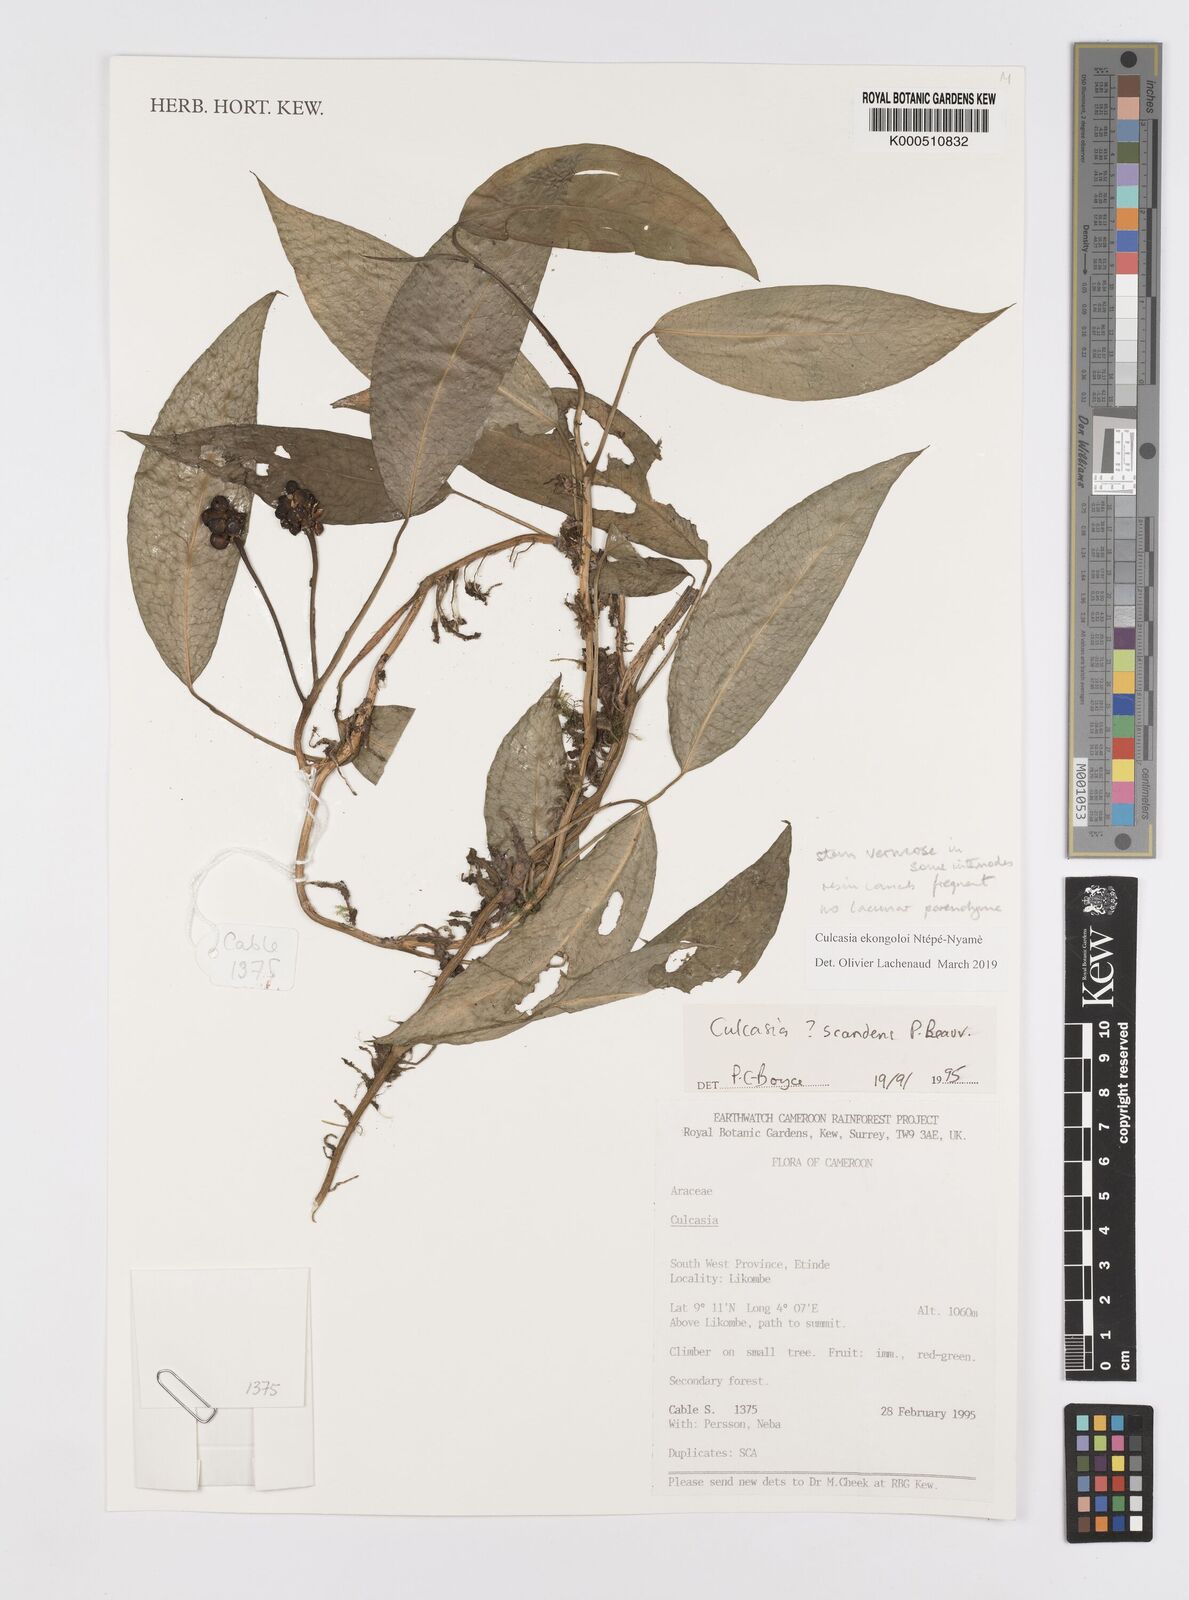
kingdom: Plantae
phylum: Tracheophyta
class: Liliopsida
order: Alismatales
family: Araceae
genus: Culcasia
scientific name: Culcasia
